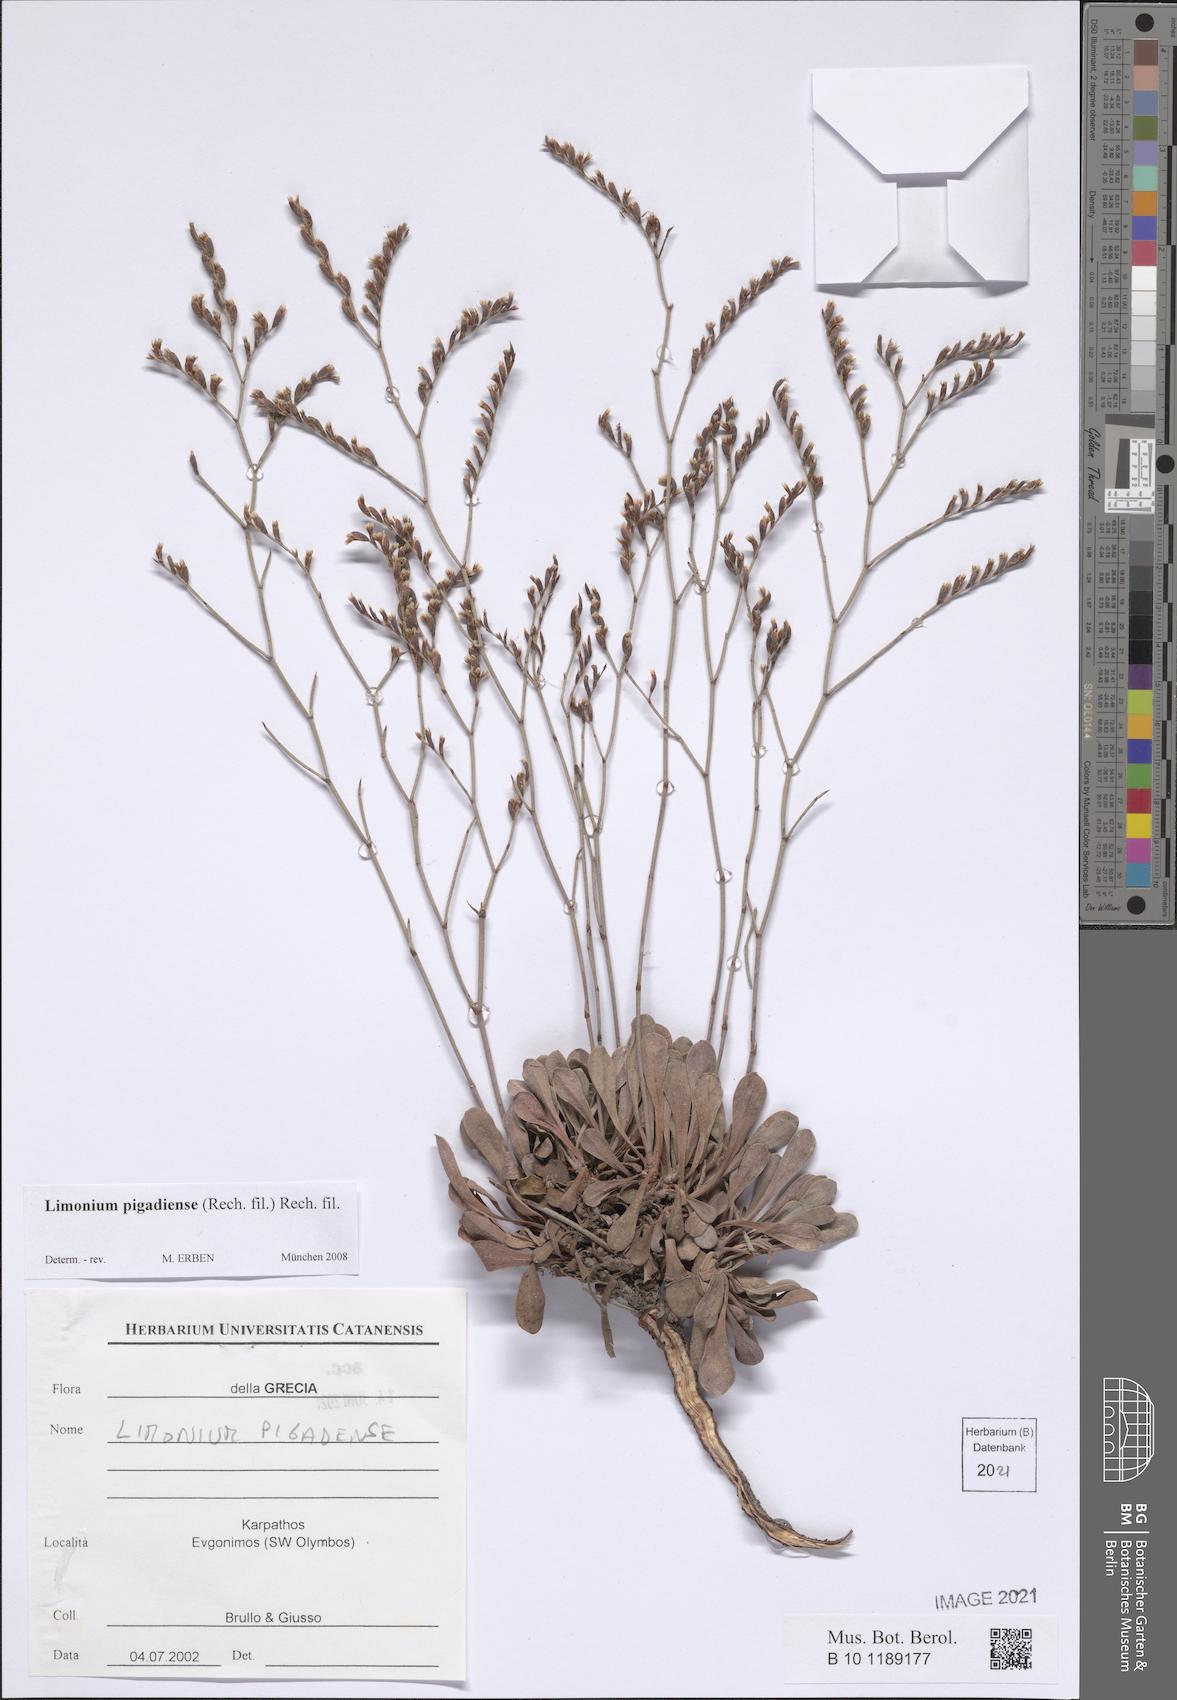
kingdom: Plantae
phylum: Tracheophyta
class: Magnoliopsida
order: Caryophyllales
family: Plumbaginaceae
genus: Limonium
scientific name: Limonium pigadiense
